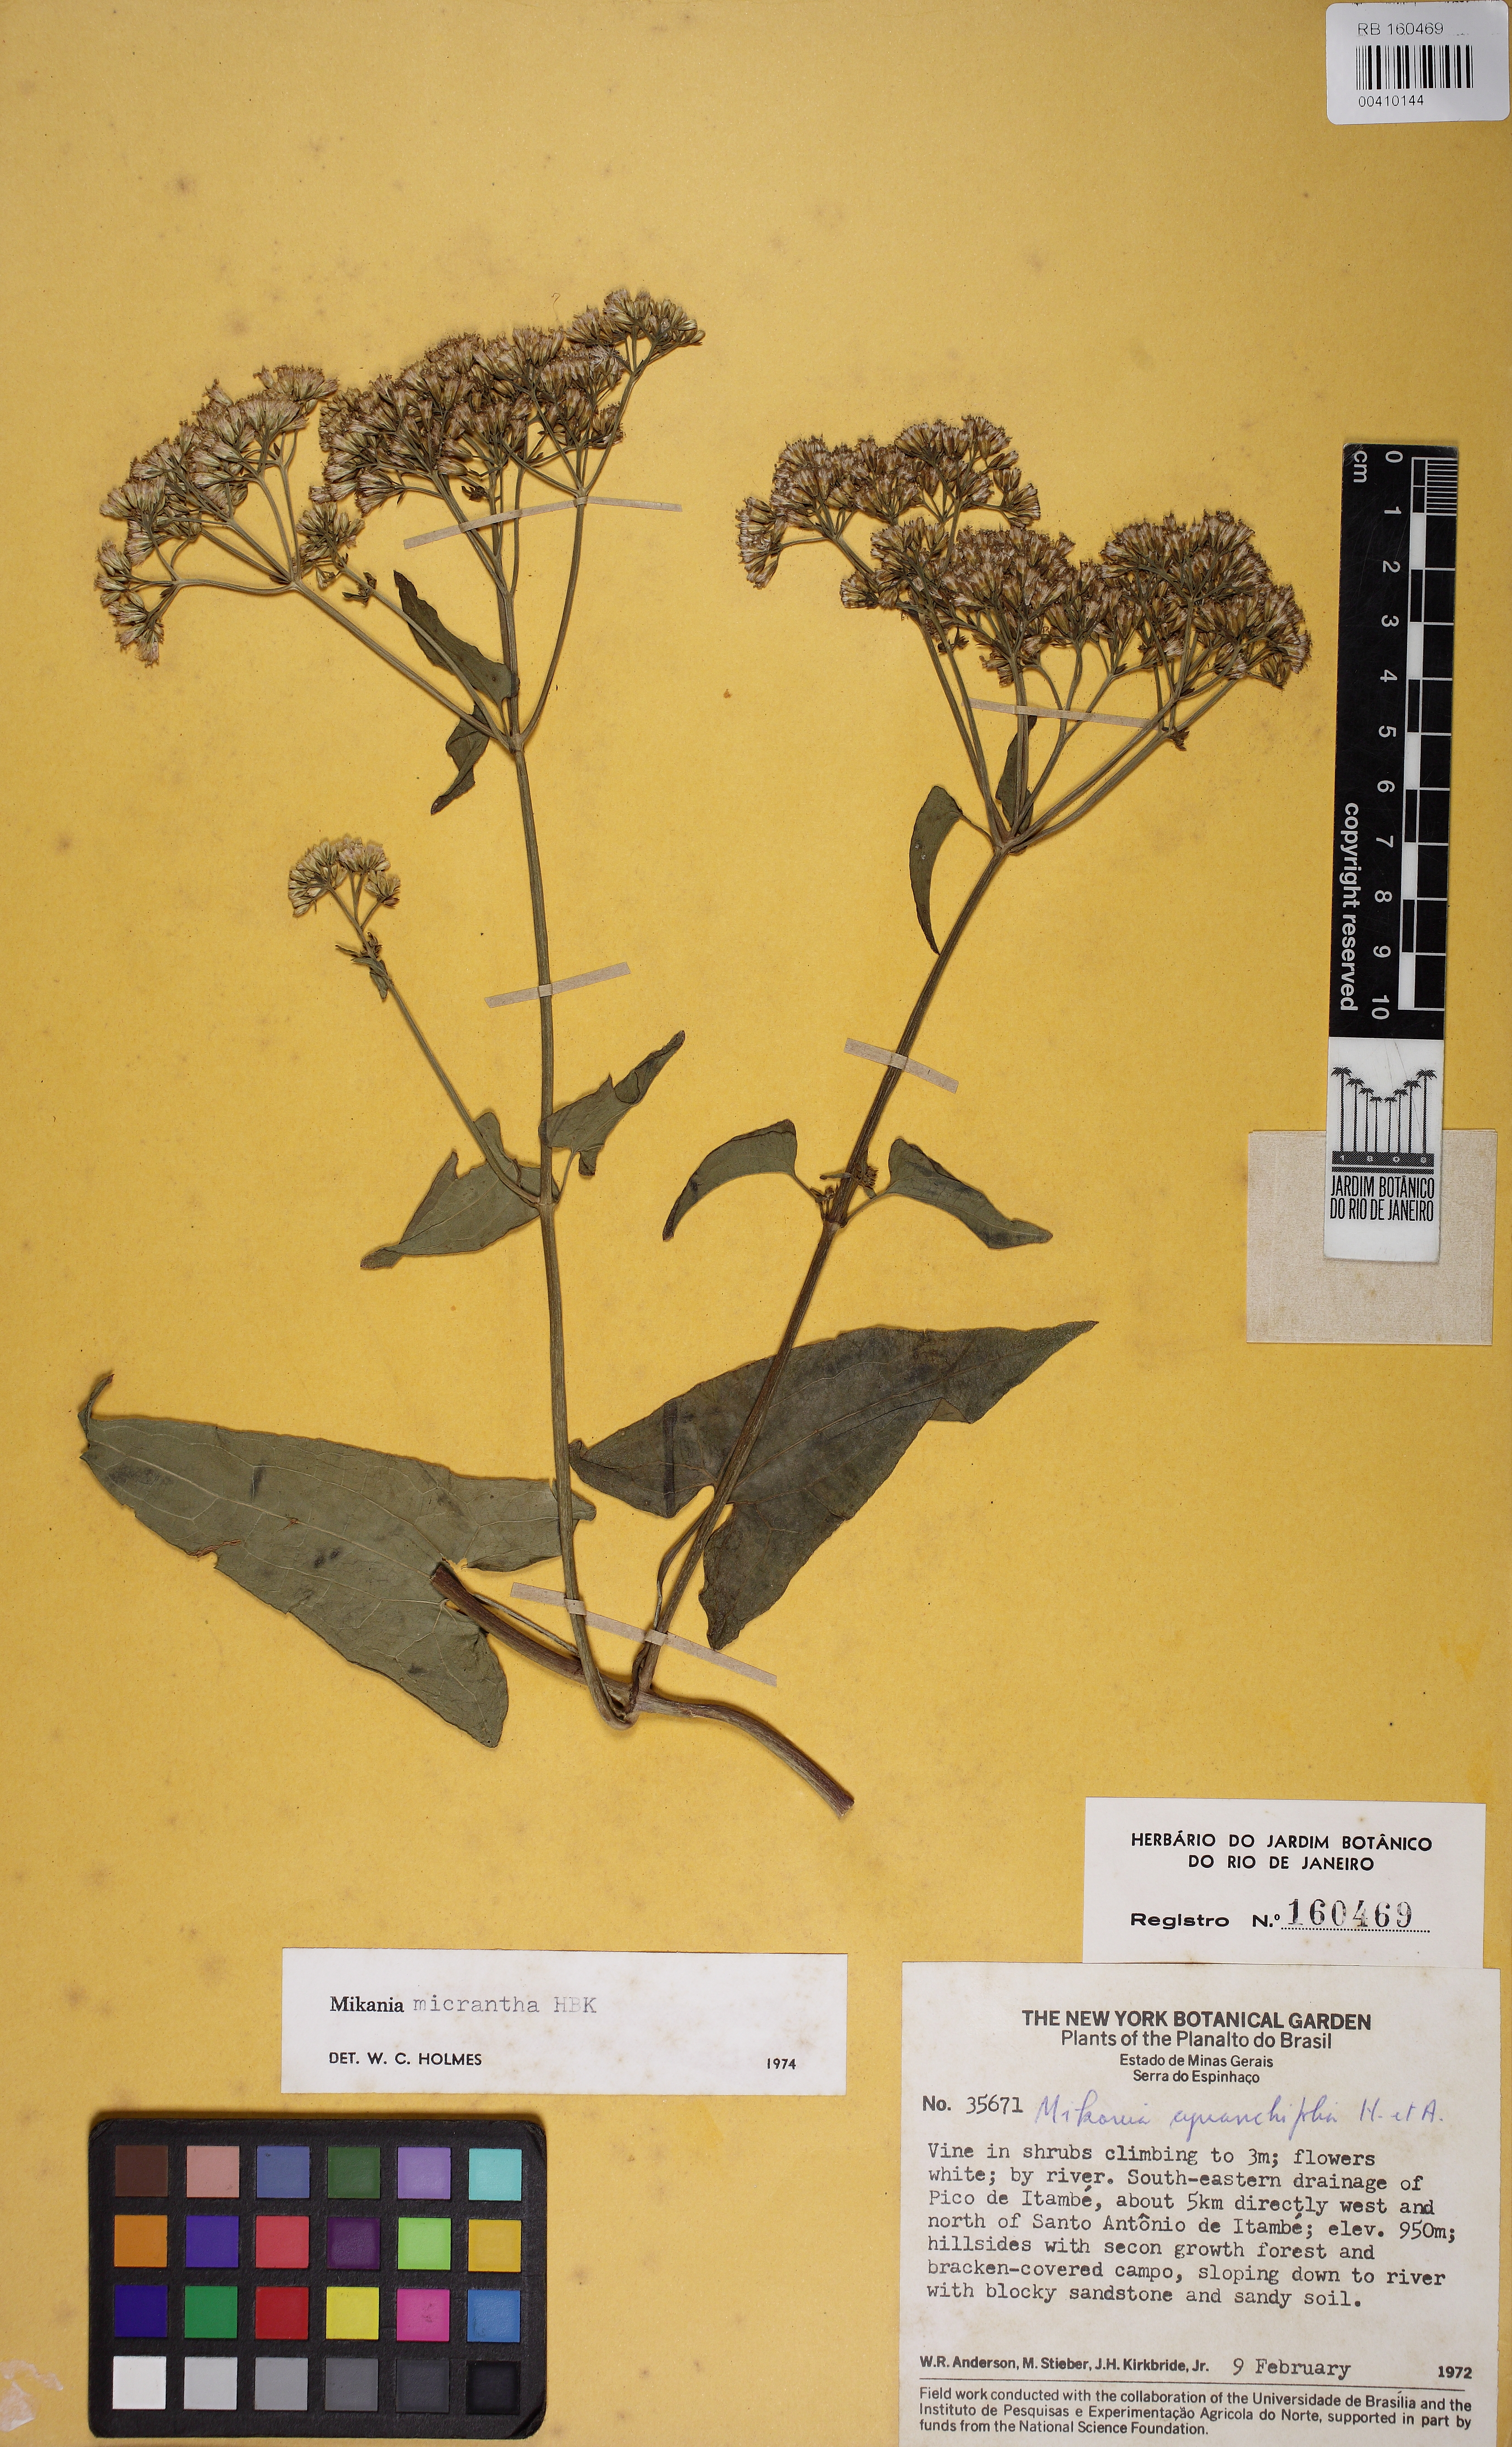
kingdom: Plantae
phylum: Tracheophyta
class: Magnoliopsida
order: Asterales
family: Asteraceae
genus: Mikania
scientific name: Mikania micrantha
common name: Mile-a-minute
